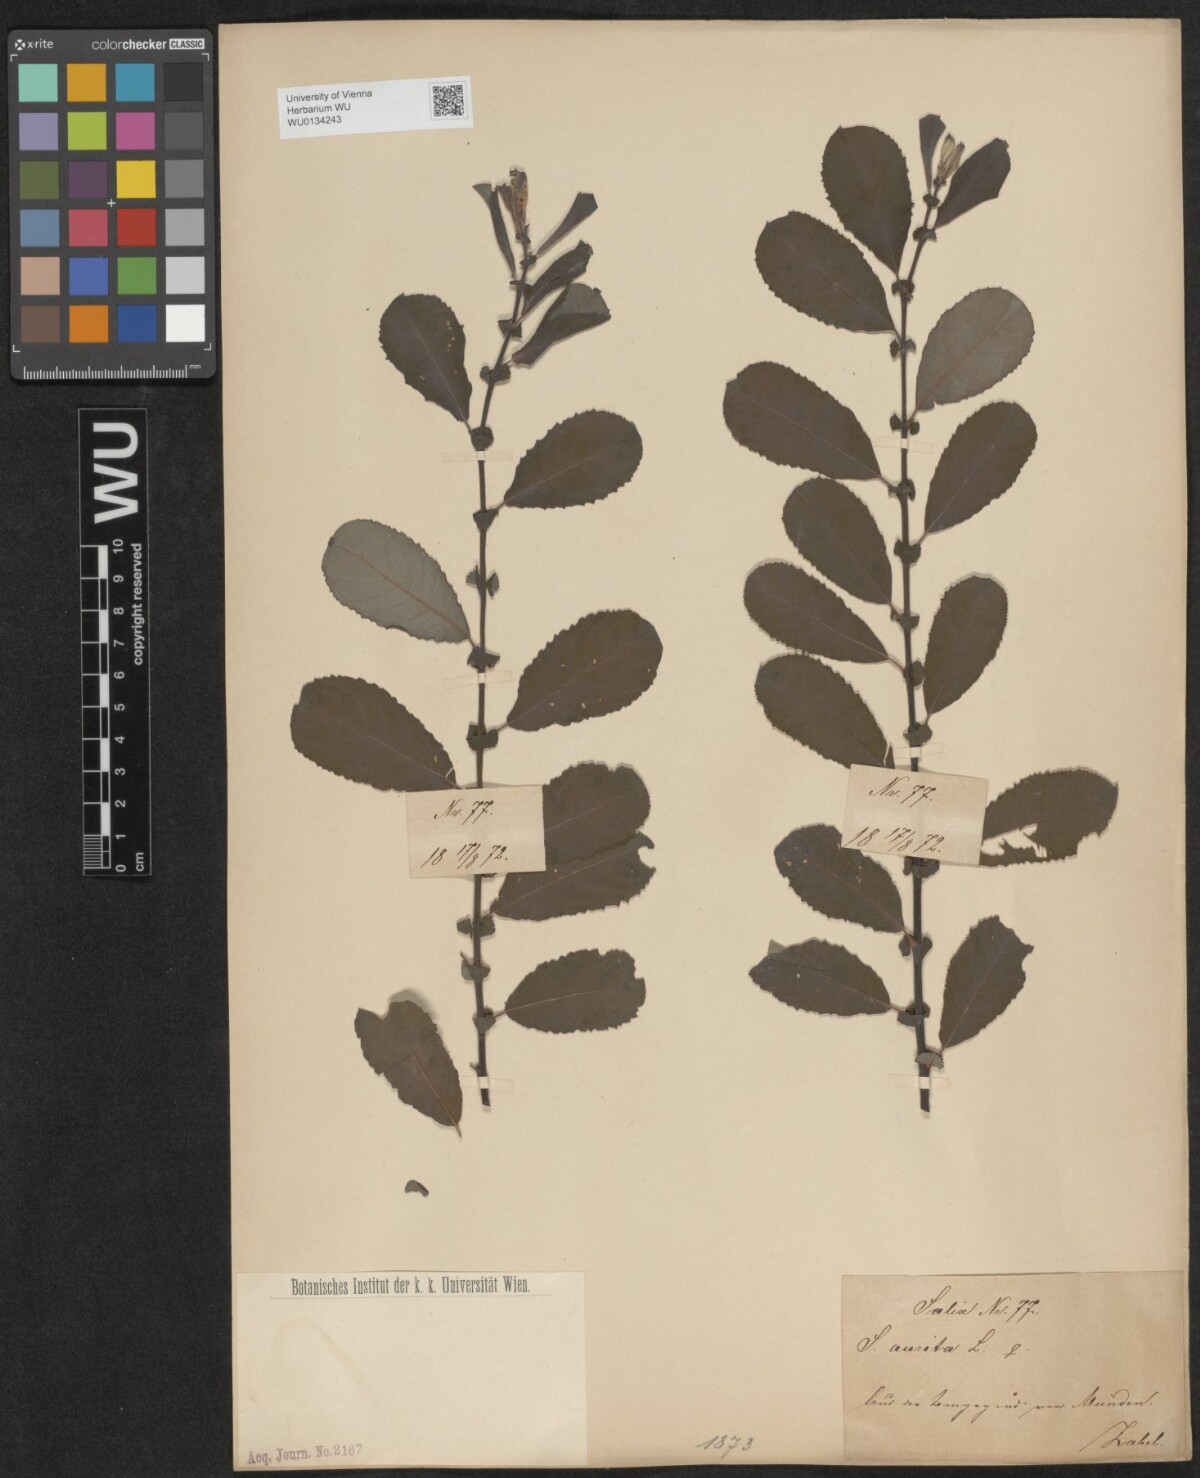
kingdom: Plantae
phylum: Tracheophyta
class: Magnoliopsida
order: Malpighiales
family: Salicaceae
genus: Salix
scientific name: Salix aurita
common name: Eared willow
